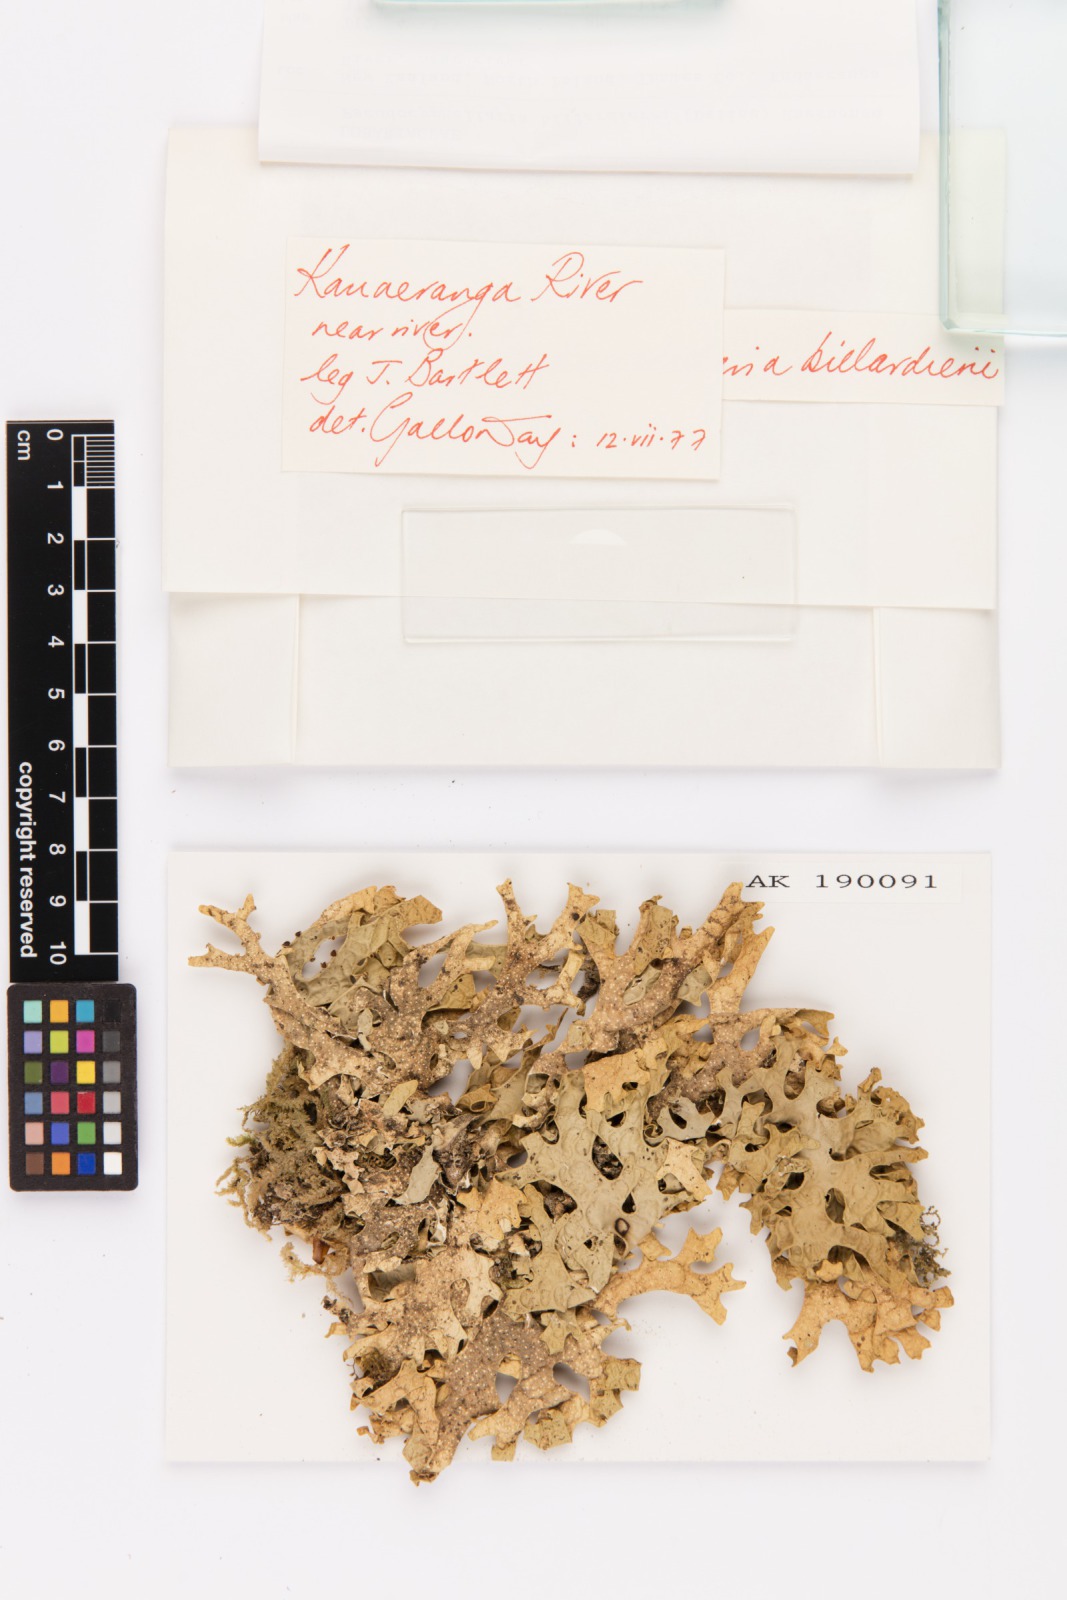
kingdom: Fungi
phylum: Ascomycota
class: Lecanoromycetes
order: Peltigerales
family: Lobariaceae
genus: Pseudocyphellaria
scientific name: Pseudocyphellaria billardierei
